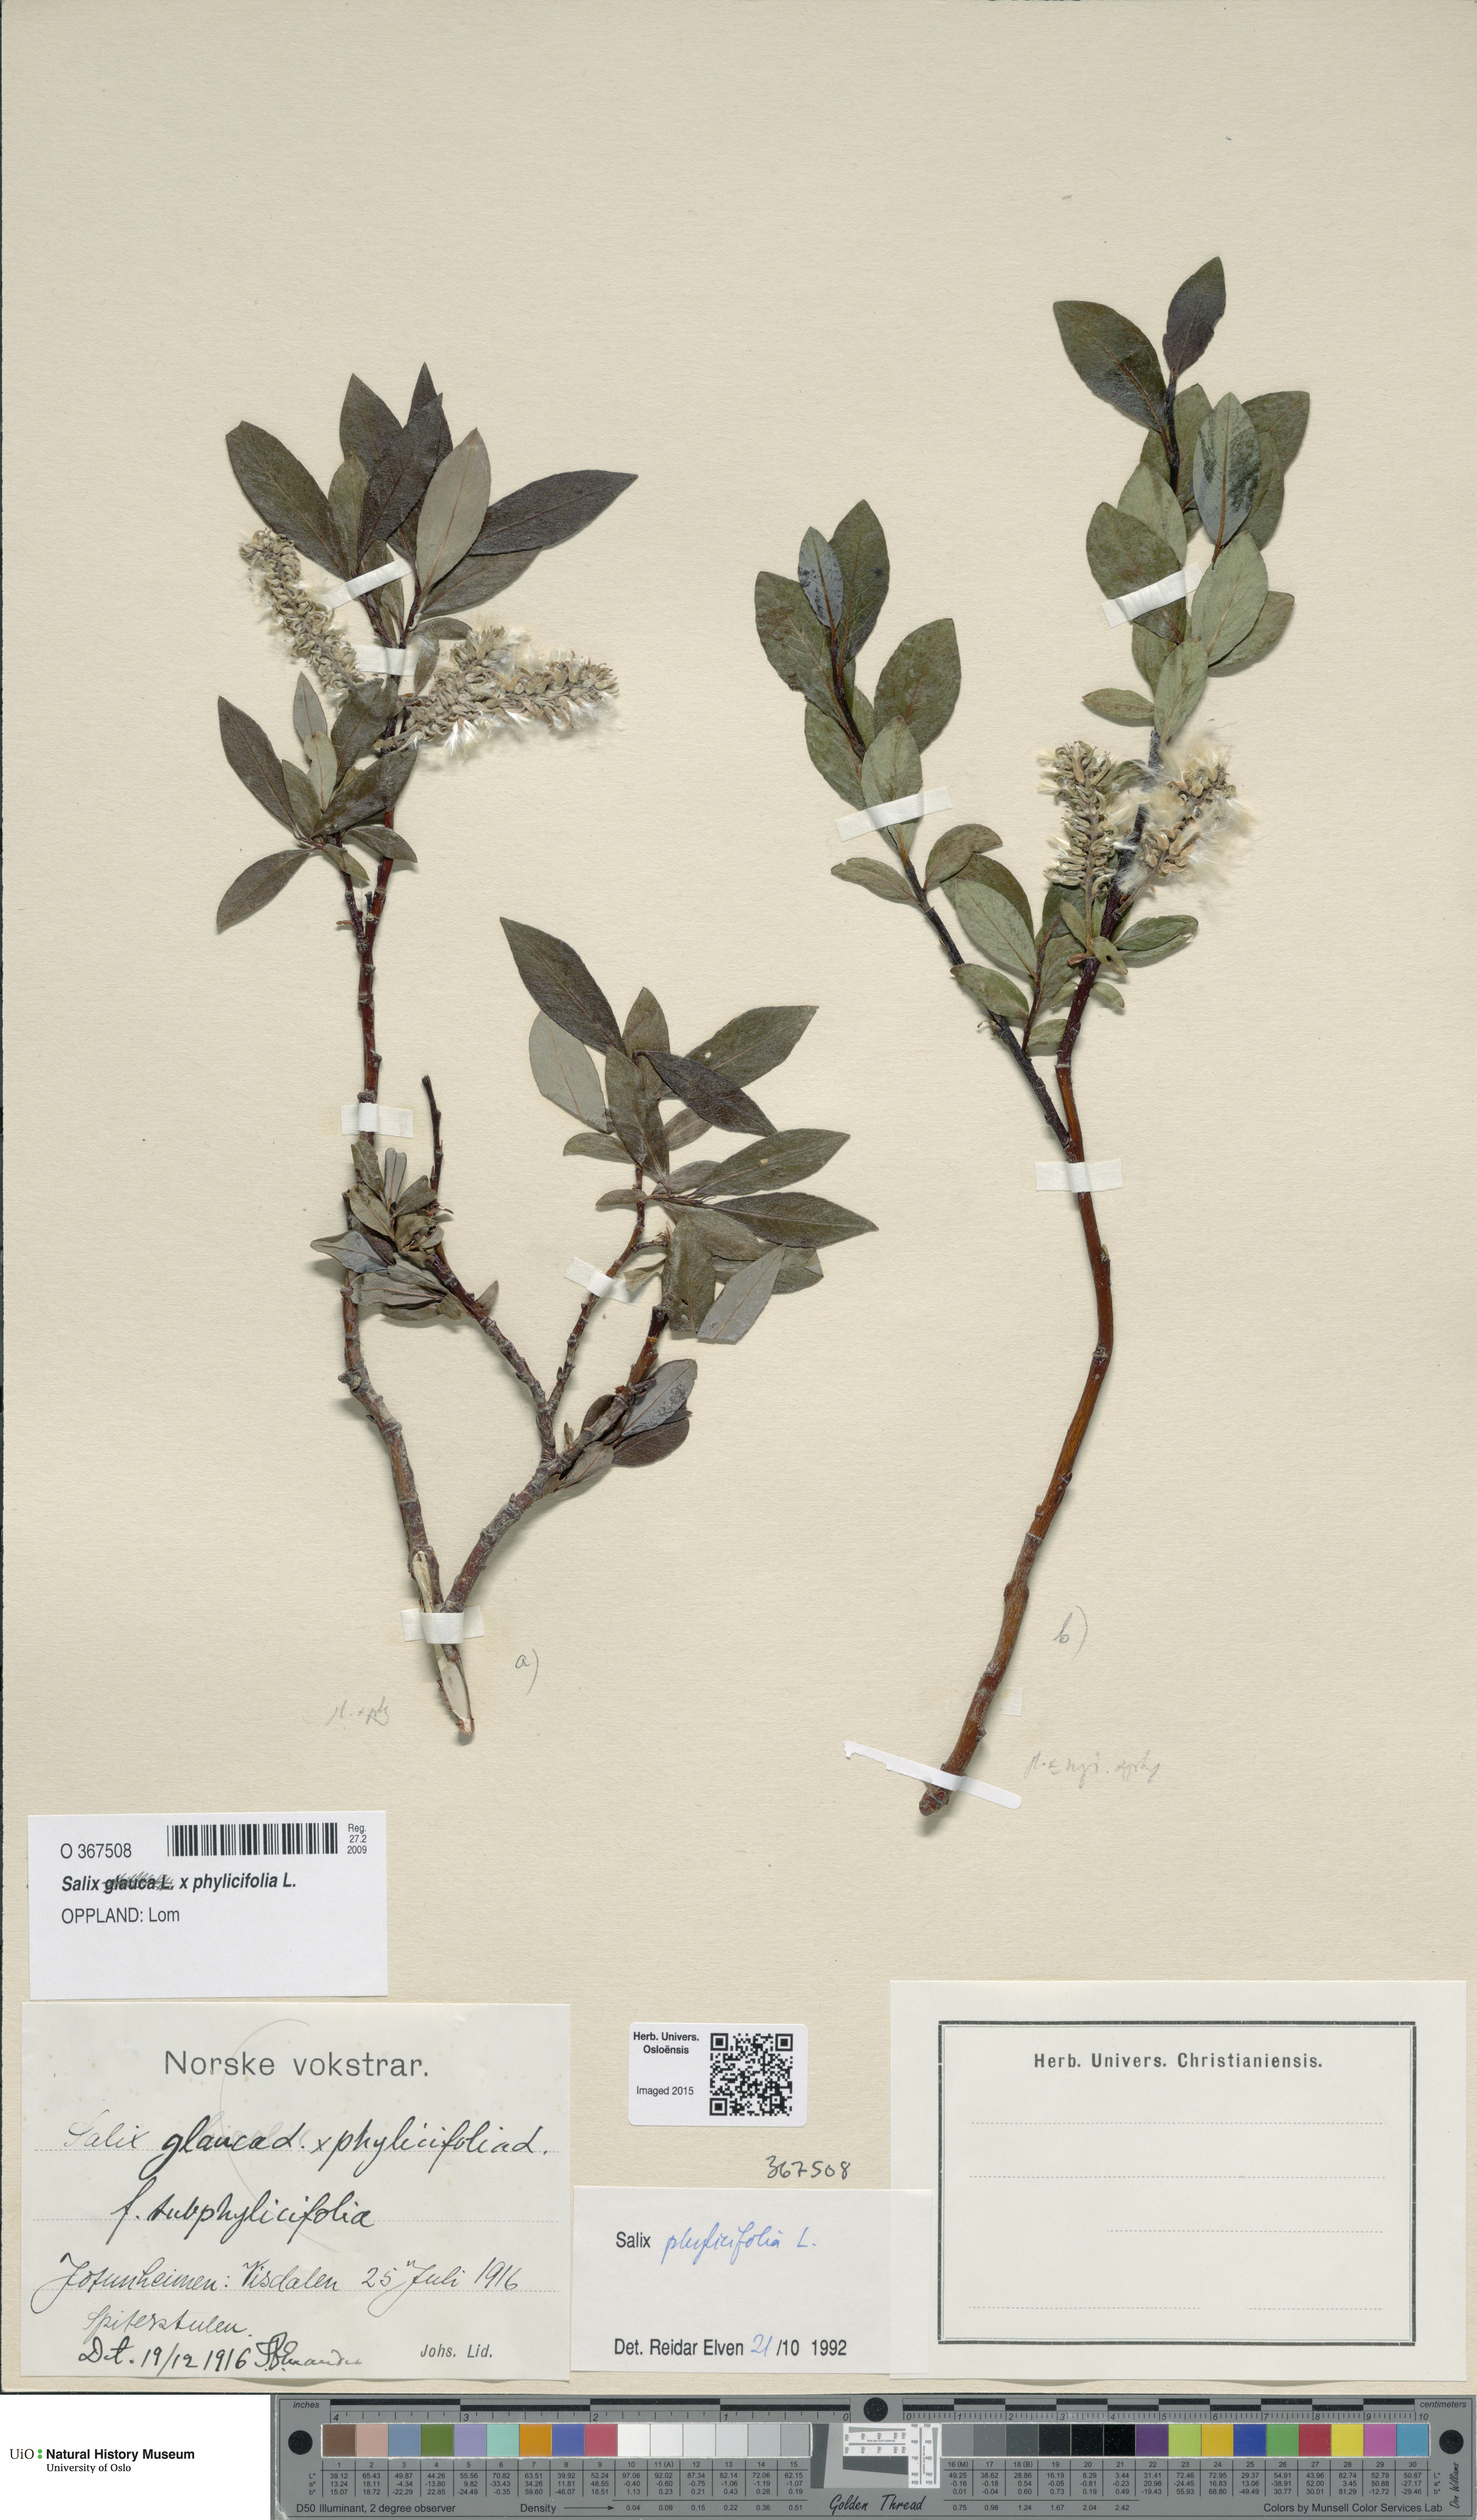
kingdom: Plantae
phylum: Tracheophyta
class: Magnoliopsida
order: Malpighiales
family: Salicaceae
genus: Salix
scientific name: Salix
